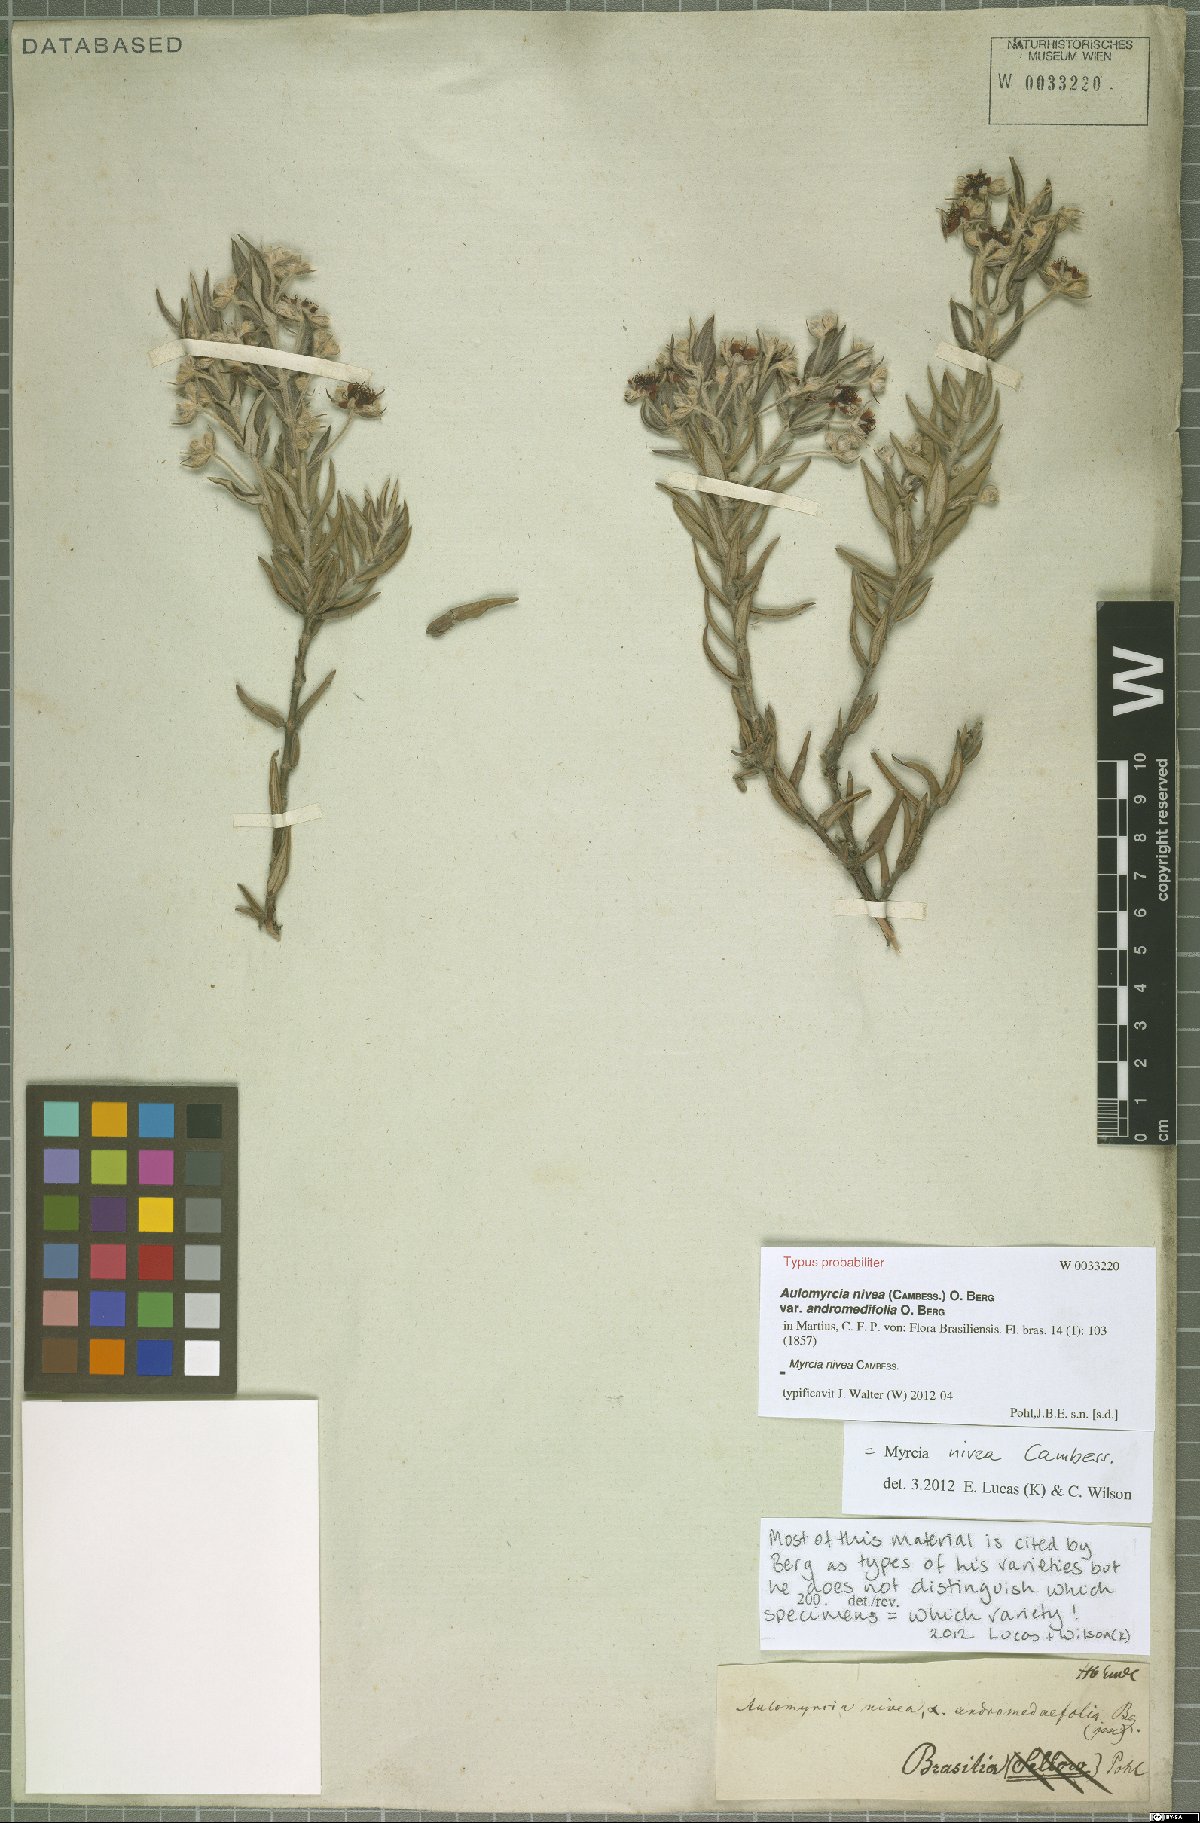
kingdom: Plantae
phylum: Tracheophyta
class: Magnoliopsida
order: Myrtales
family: Myrtaceae
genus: Myrcia
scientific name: Myrcia nivea
